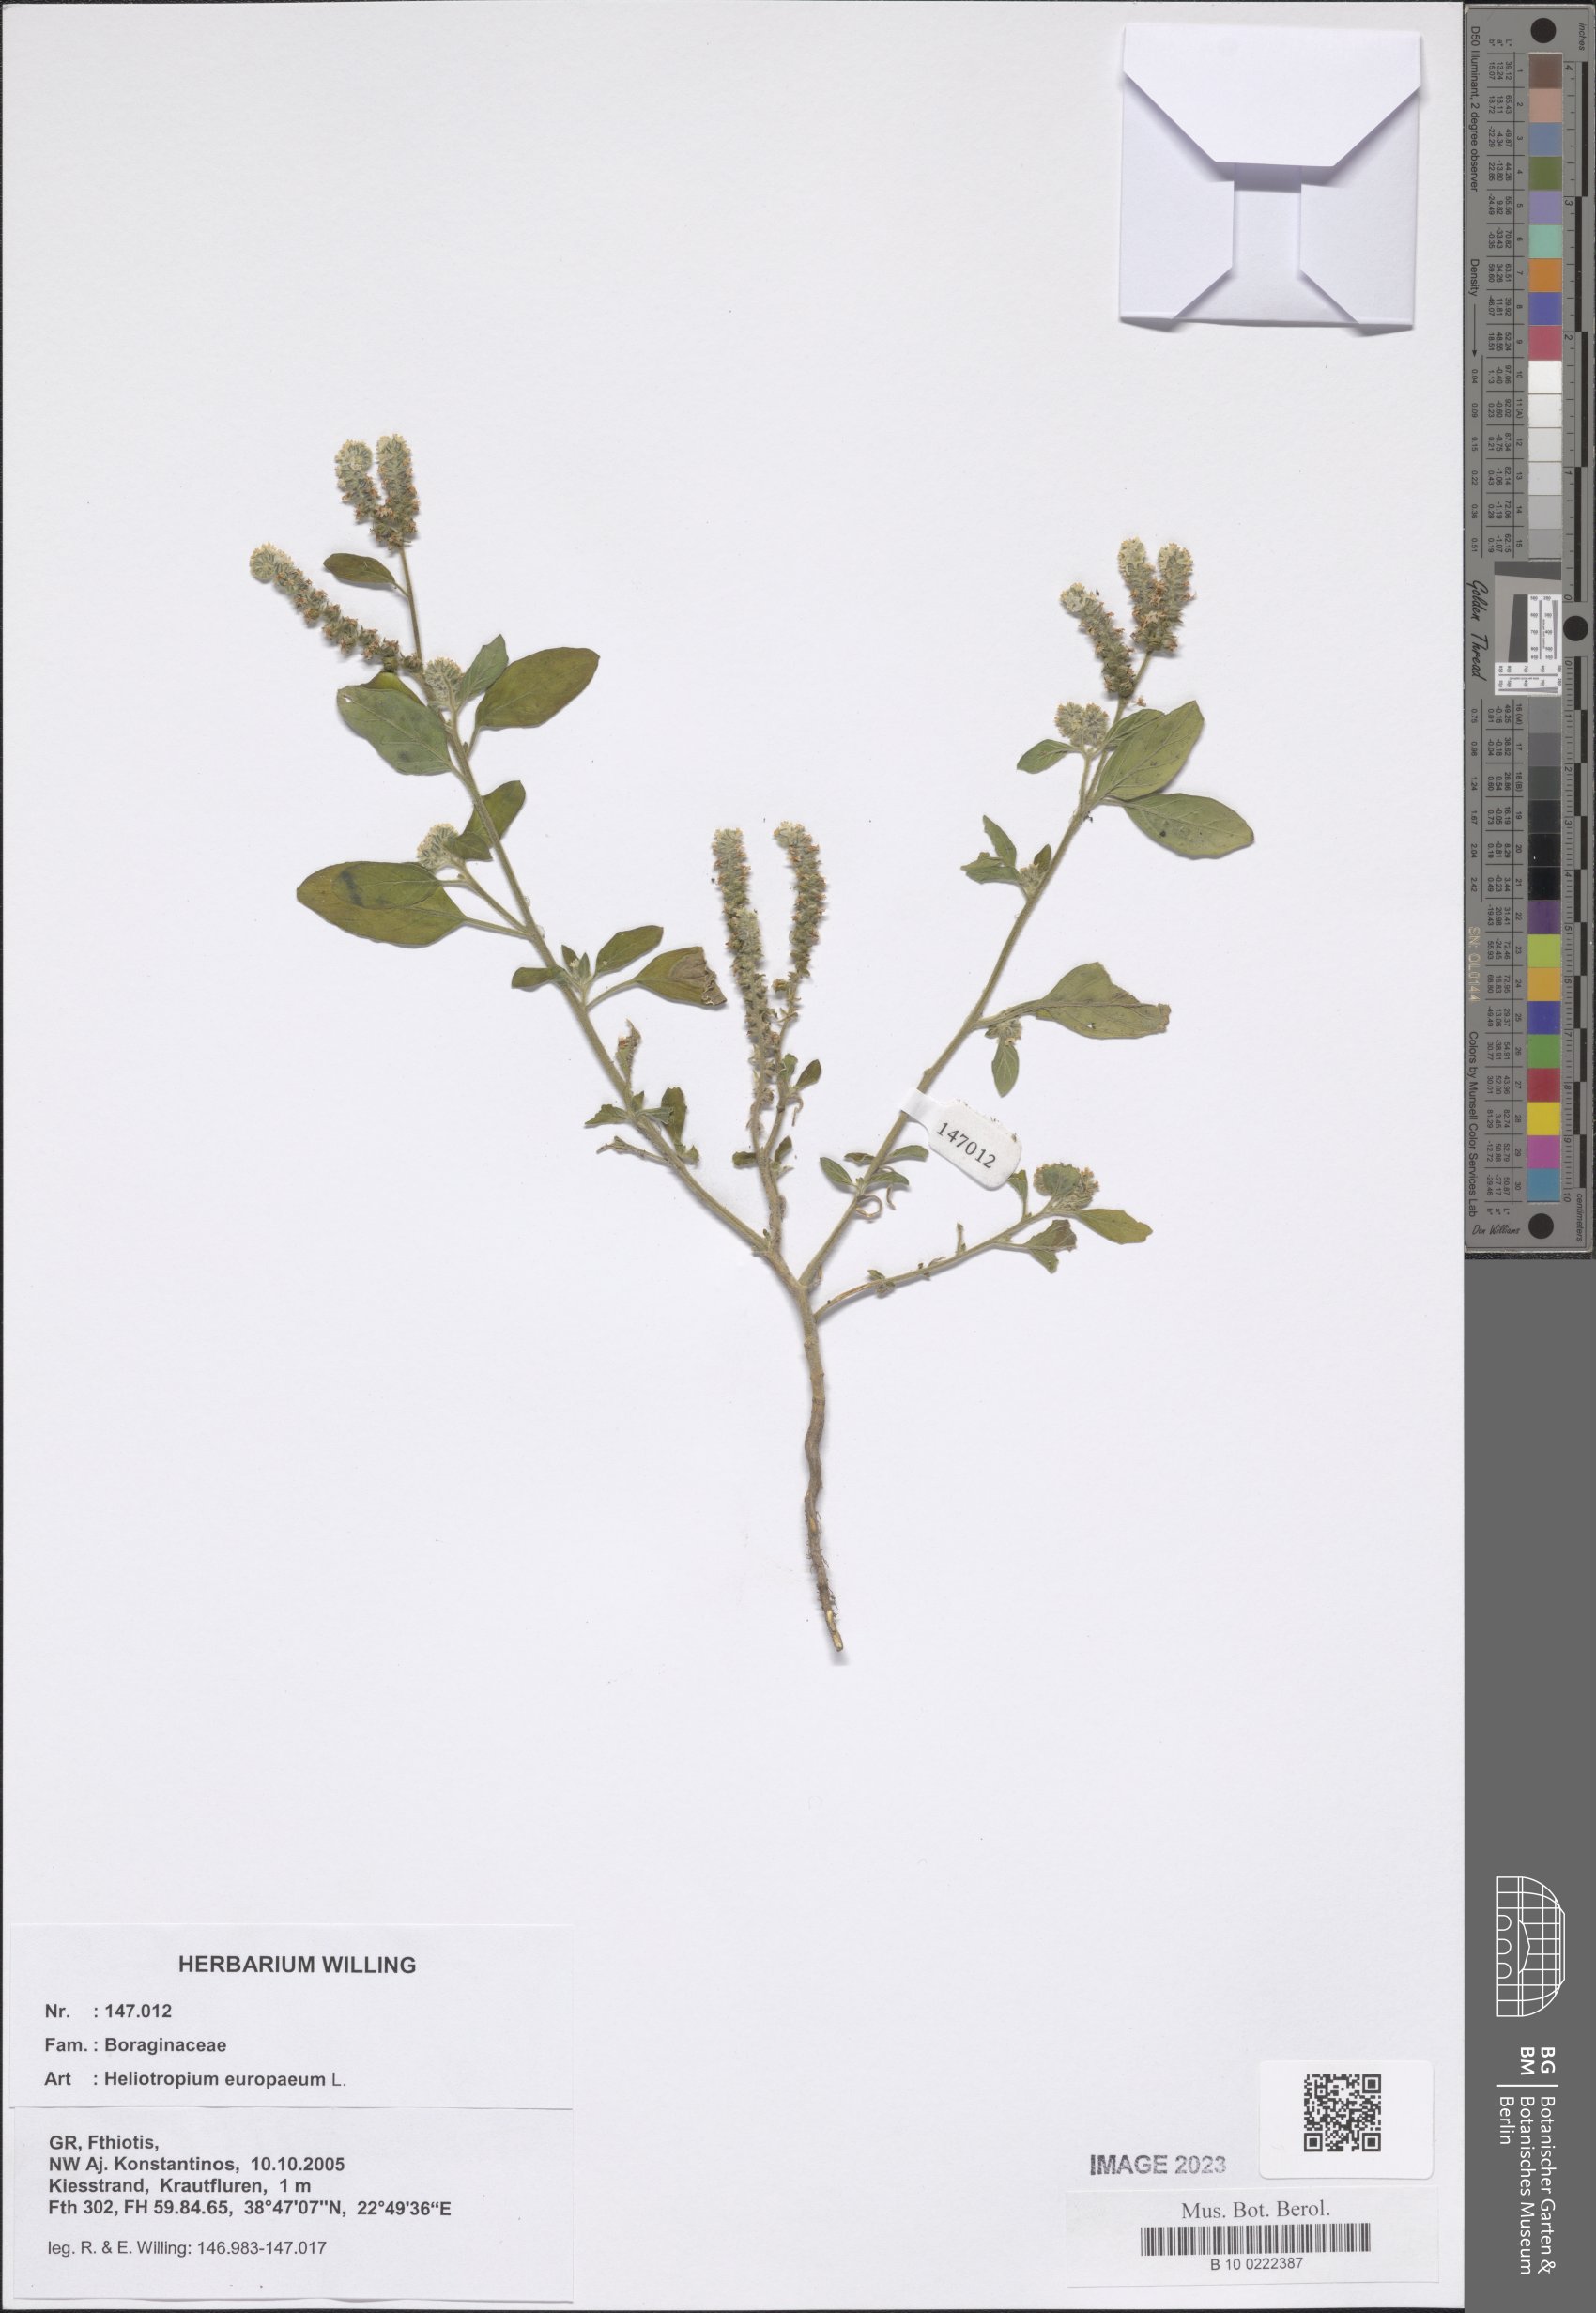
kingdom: Plantae
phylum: Tracheophyta
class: Magnoliopsida
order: Boraginales
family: Heliotropiaceae
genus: Heliotropium
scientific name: Heliotropium europaeum
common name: European heliotrope
